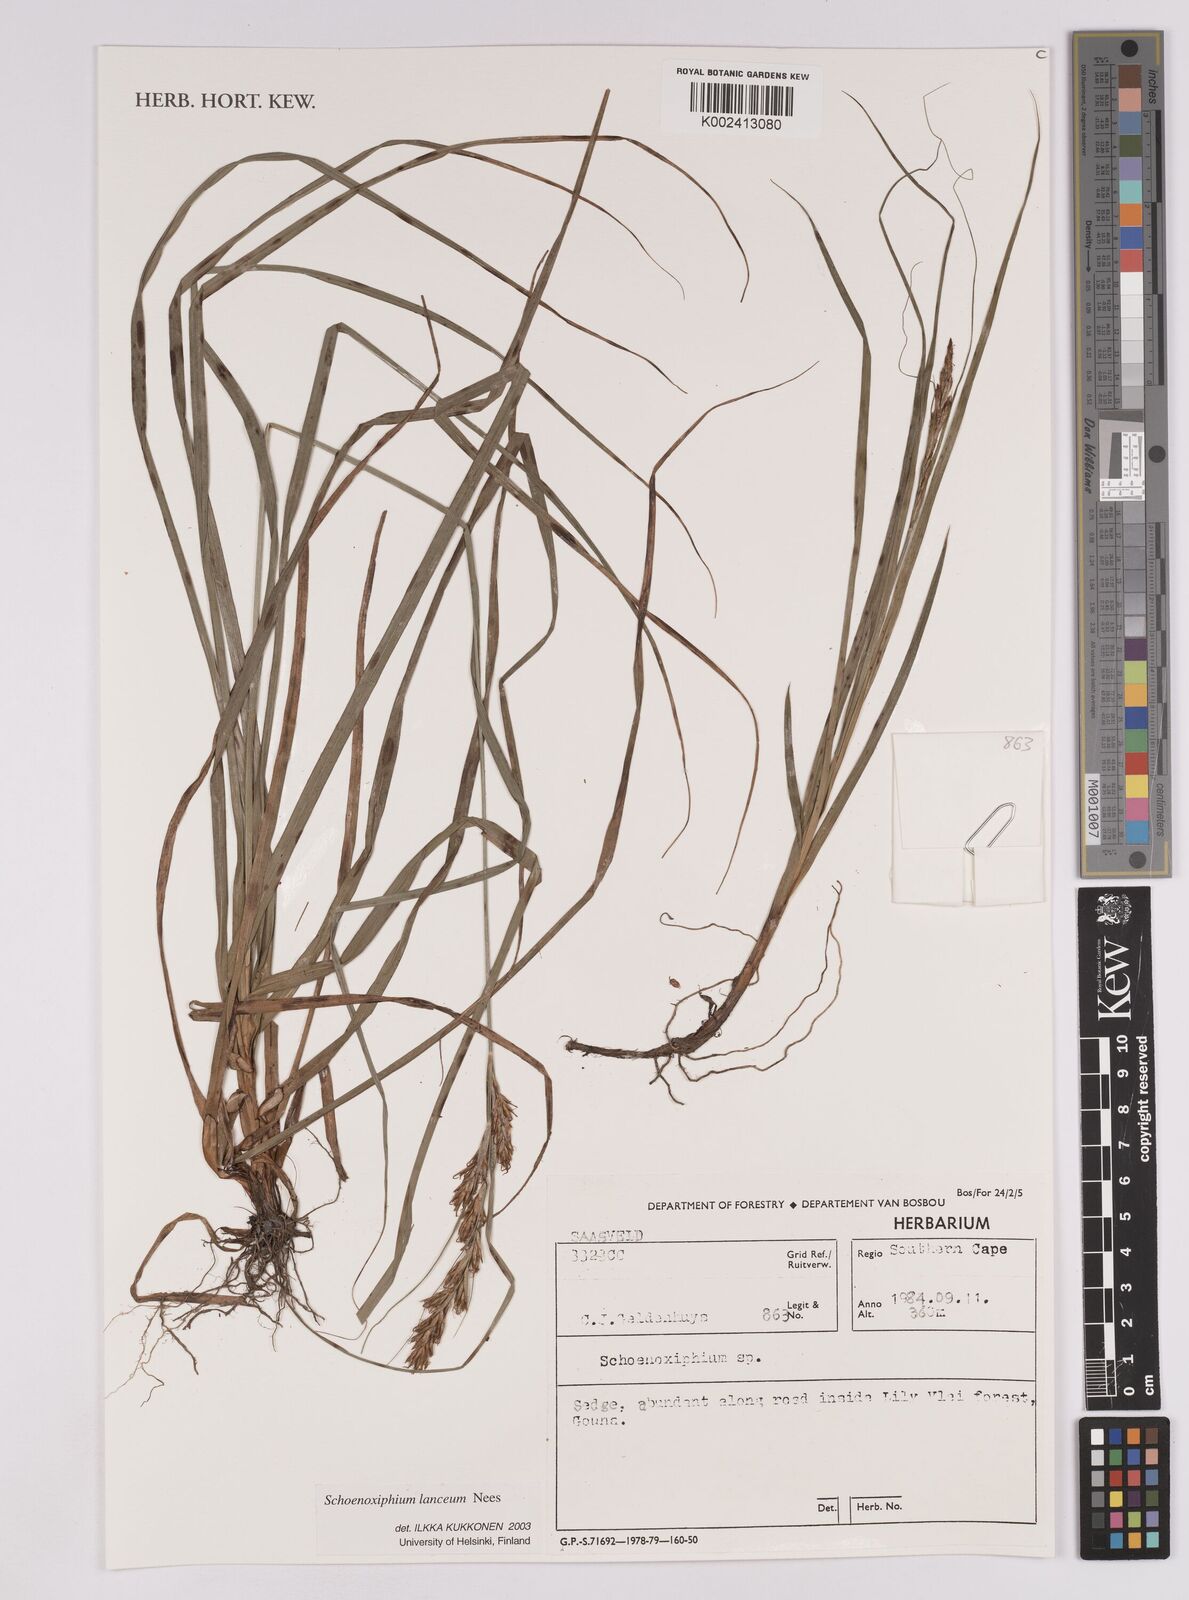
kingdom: Plantae
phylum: Tracheophyta
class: Liliopsida
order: Poales
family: Cyperaceae
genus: Carex
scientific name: Carex lancea
